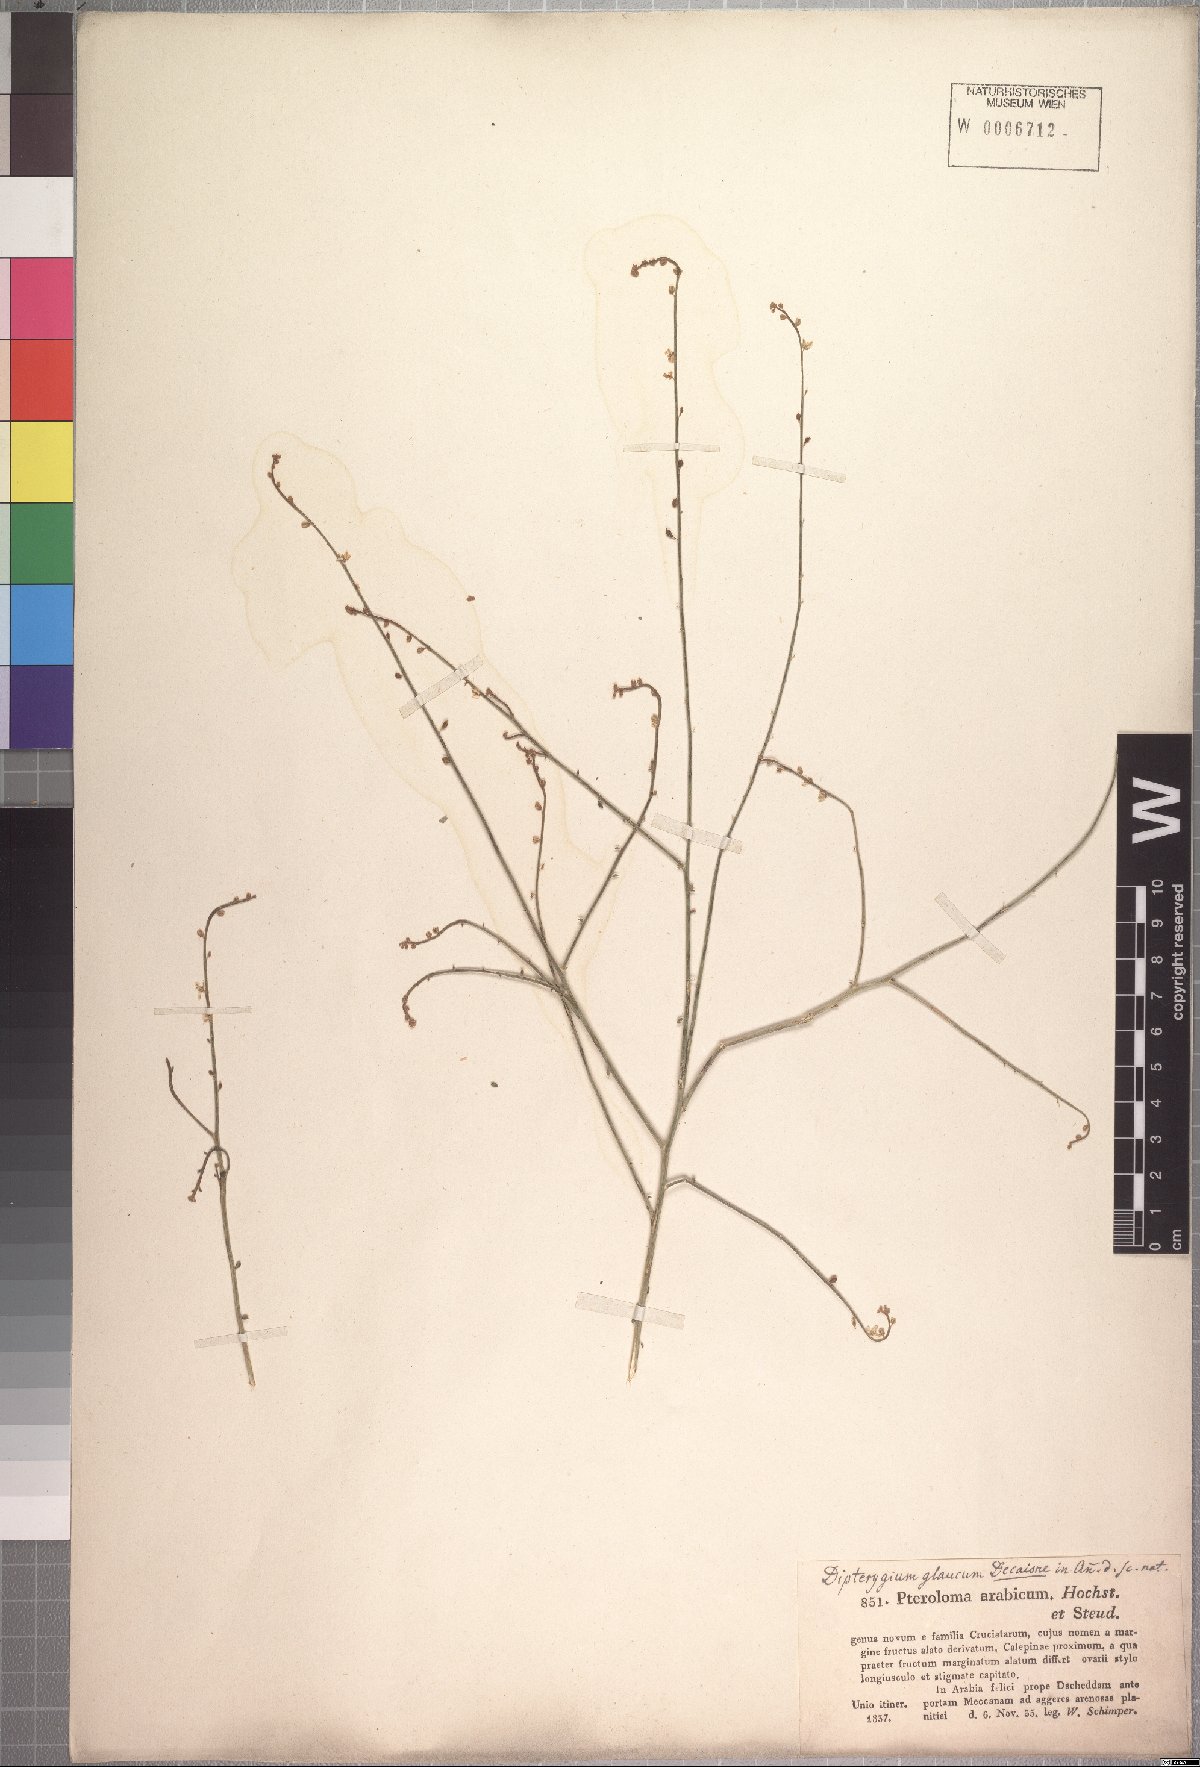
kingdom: Plantae
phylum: Tracheophyta
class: Magnoliopsida
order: Brassicales
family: Cleomaceae
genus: Dipterygium
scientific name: Dipterygium glaucum
